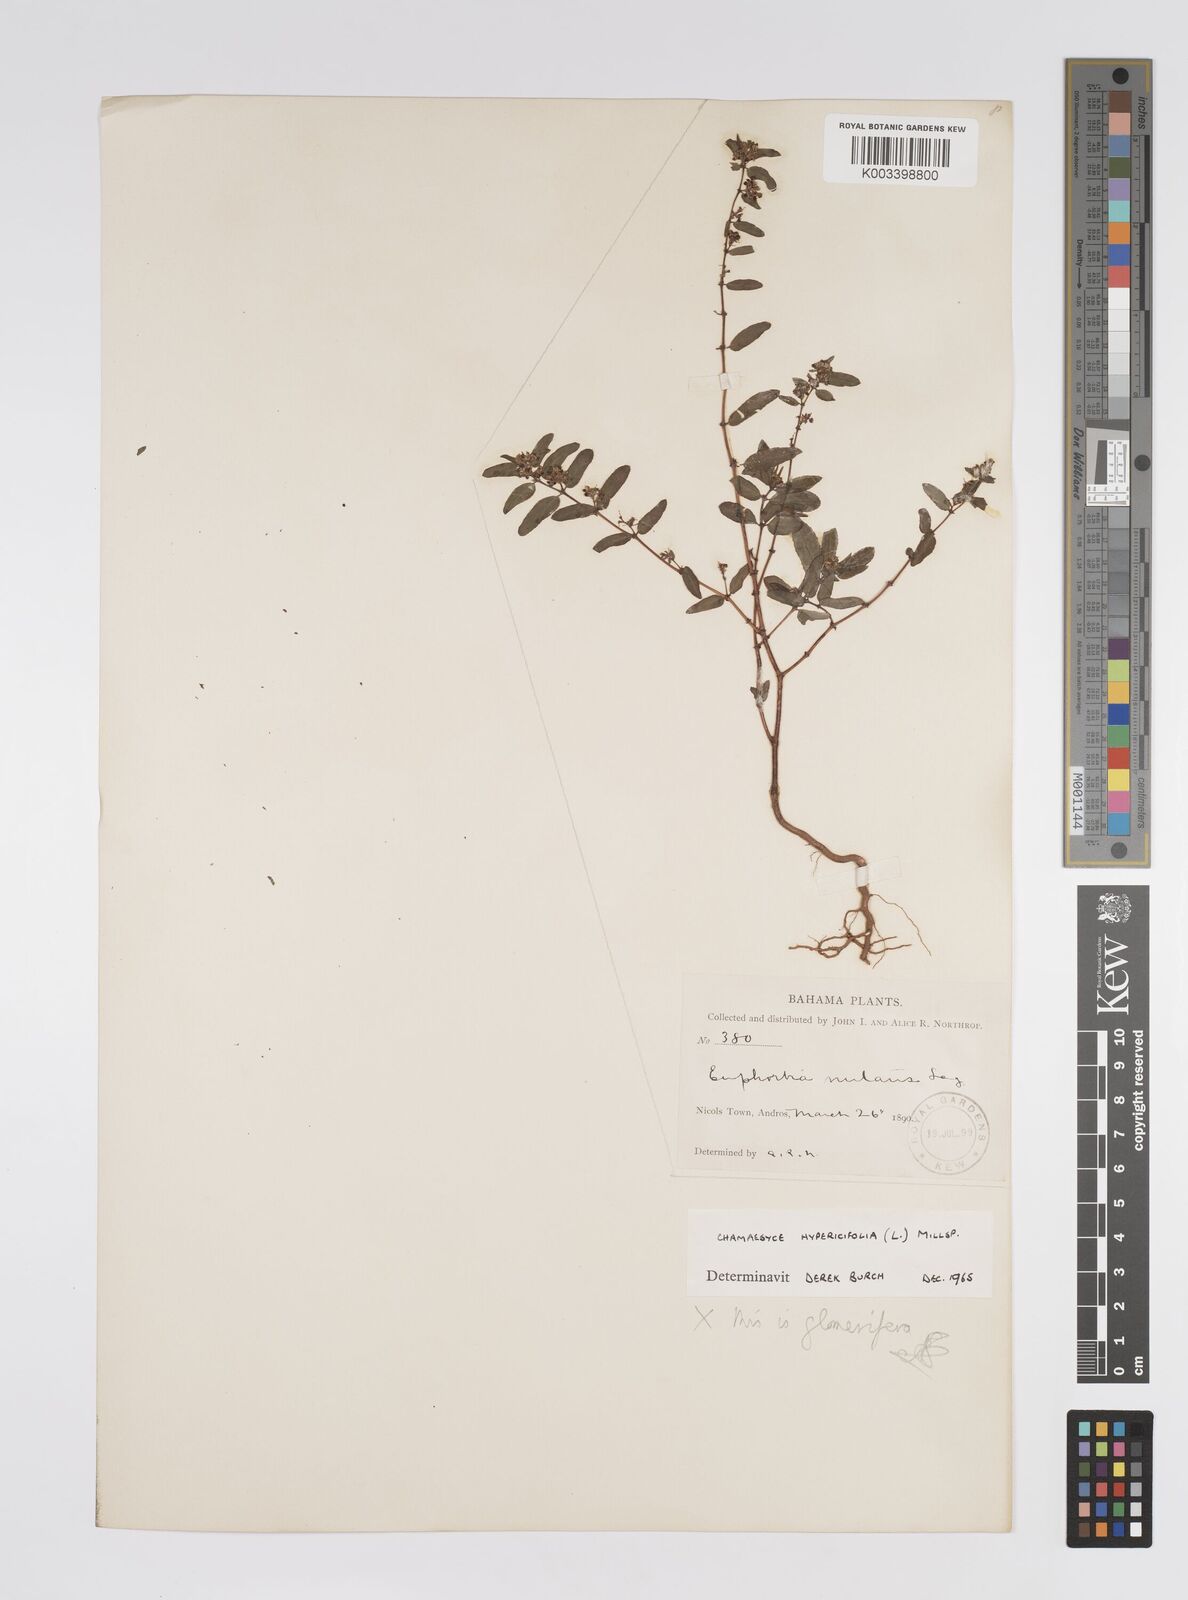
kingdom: Plantae
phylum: Tracheophyta
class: Magnoliopsida
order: Malpighiales
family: Euphorbiaceae
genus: Euphorbia
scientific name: Euphorbia nutans
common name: Eyebane
